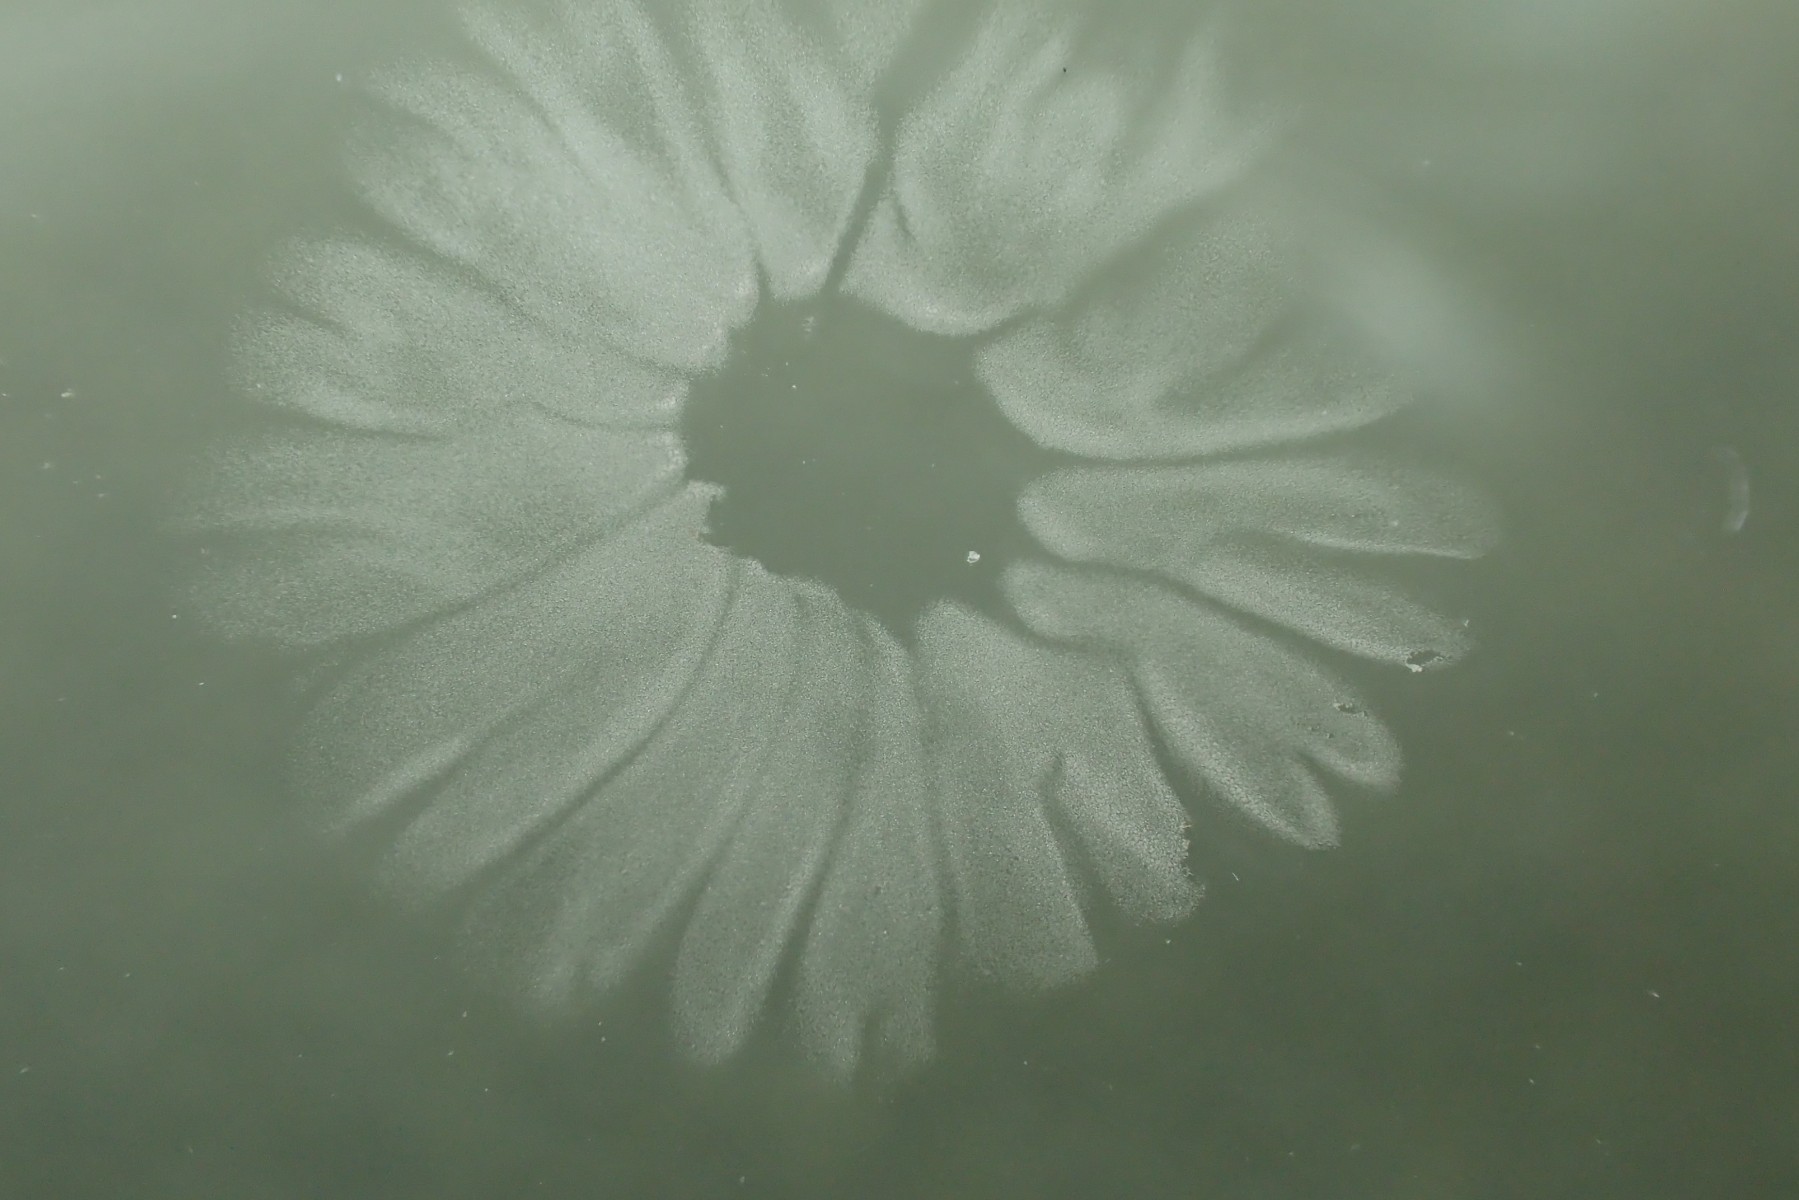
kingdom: Fungi
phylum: Basidiomycota
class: Agaricomycetes
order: Agaricales
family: Hygrophoraceae
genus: Arrhenia
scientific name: Arrhenia obscurata
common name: hede-fontænehat
